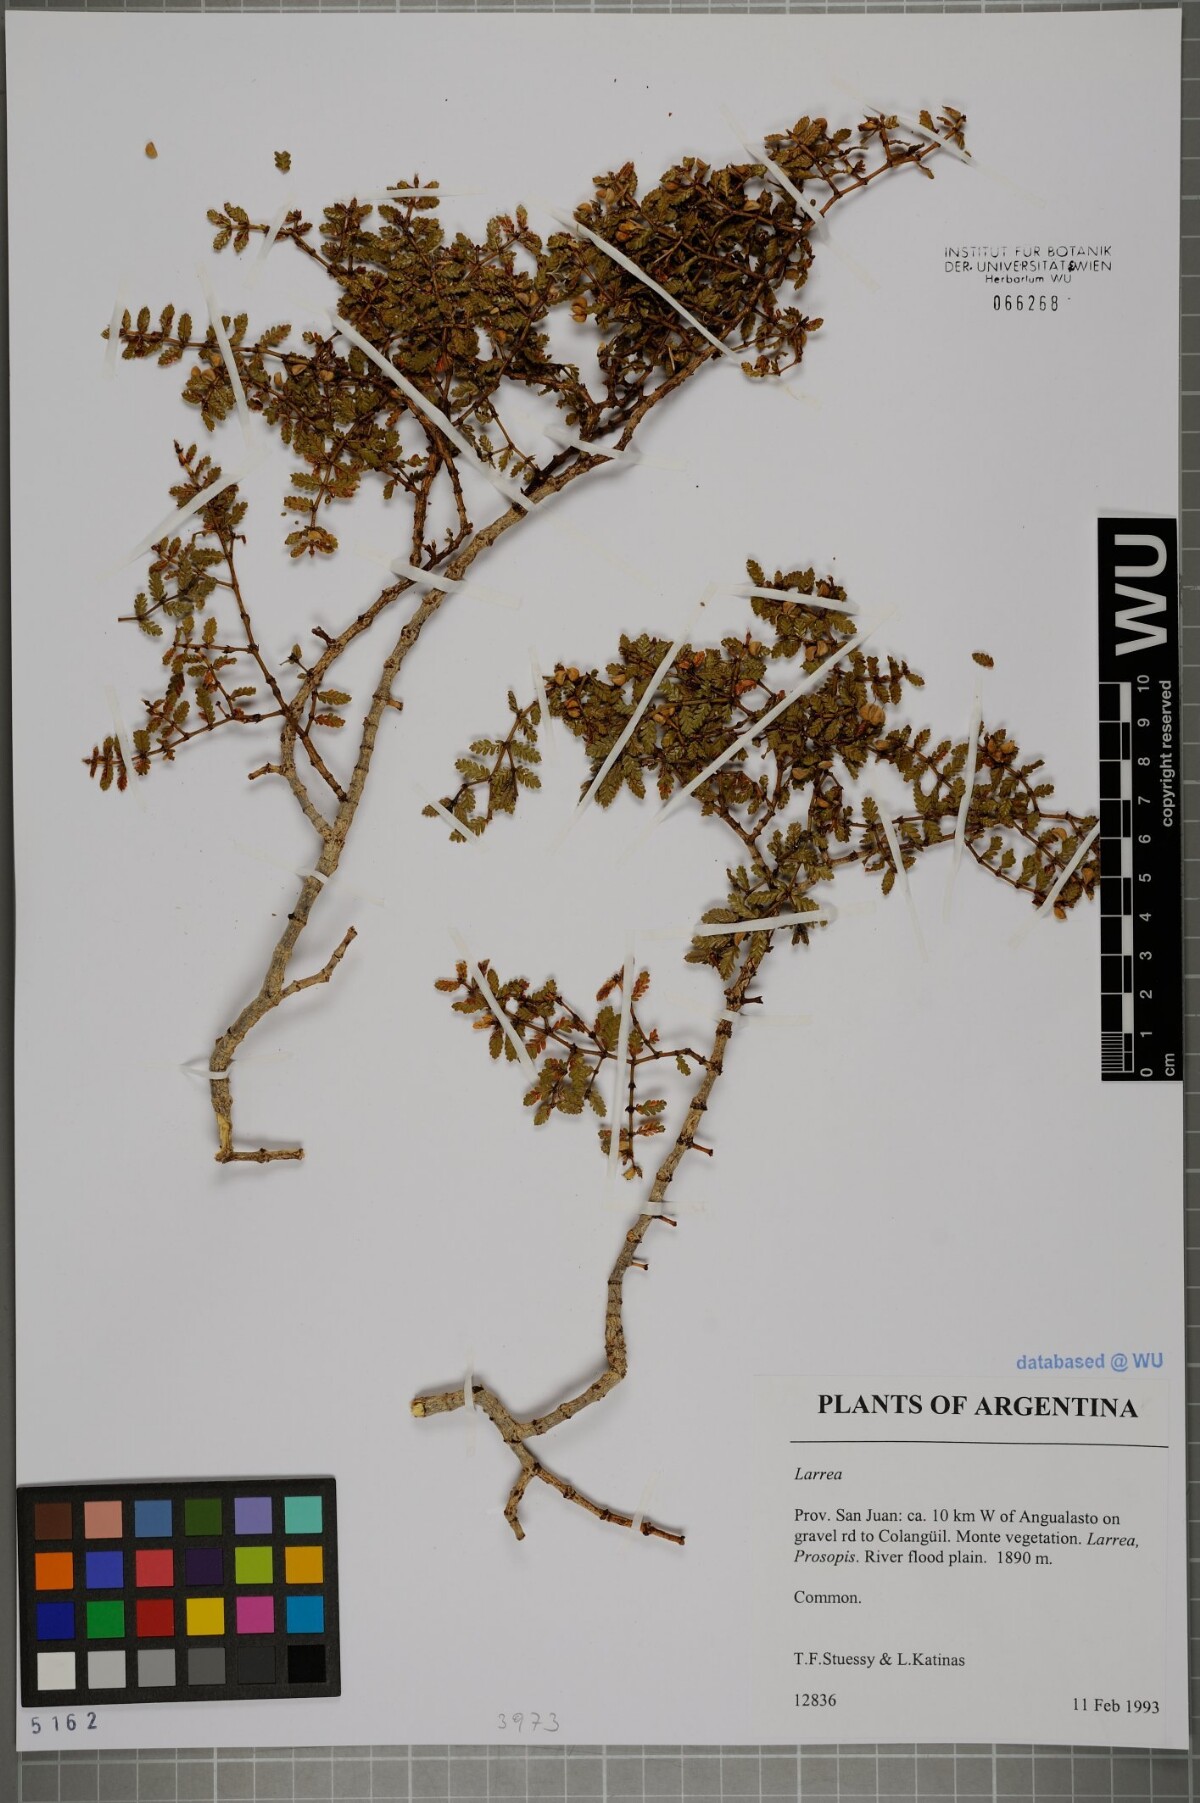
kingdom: Plantae
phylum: Tracheophyta
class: Magnoliopsida
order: Zygophyllales
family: Zygophyllaceae
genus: Larrea
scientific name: Larrea
